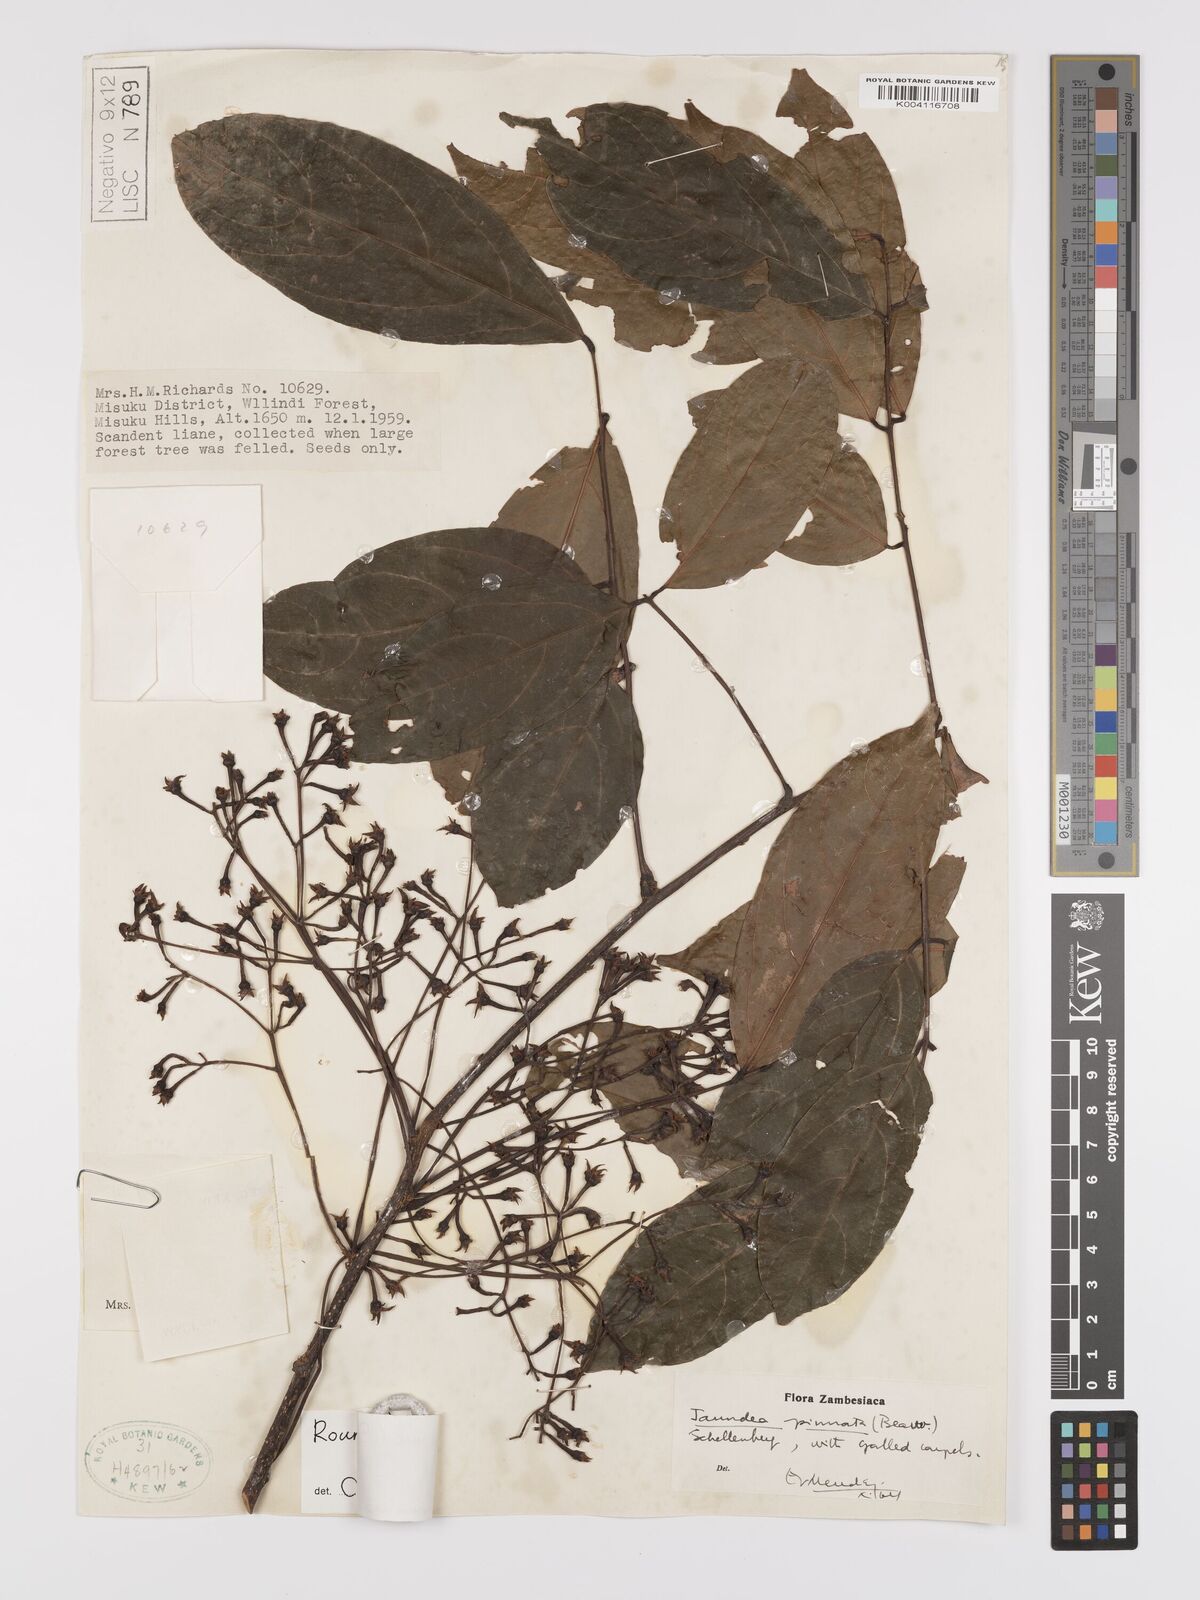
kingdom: Plantae
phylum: Tracheophyta
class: Magnoliopsida
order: Oxalidales
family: Connaraceae
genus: Rourea
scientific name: Rourea pinnata
